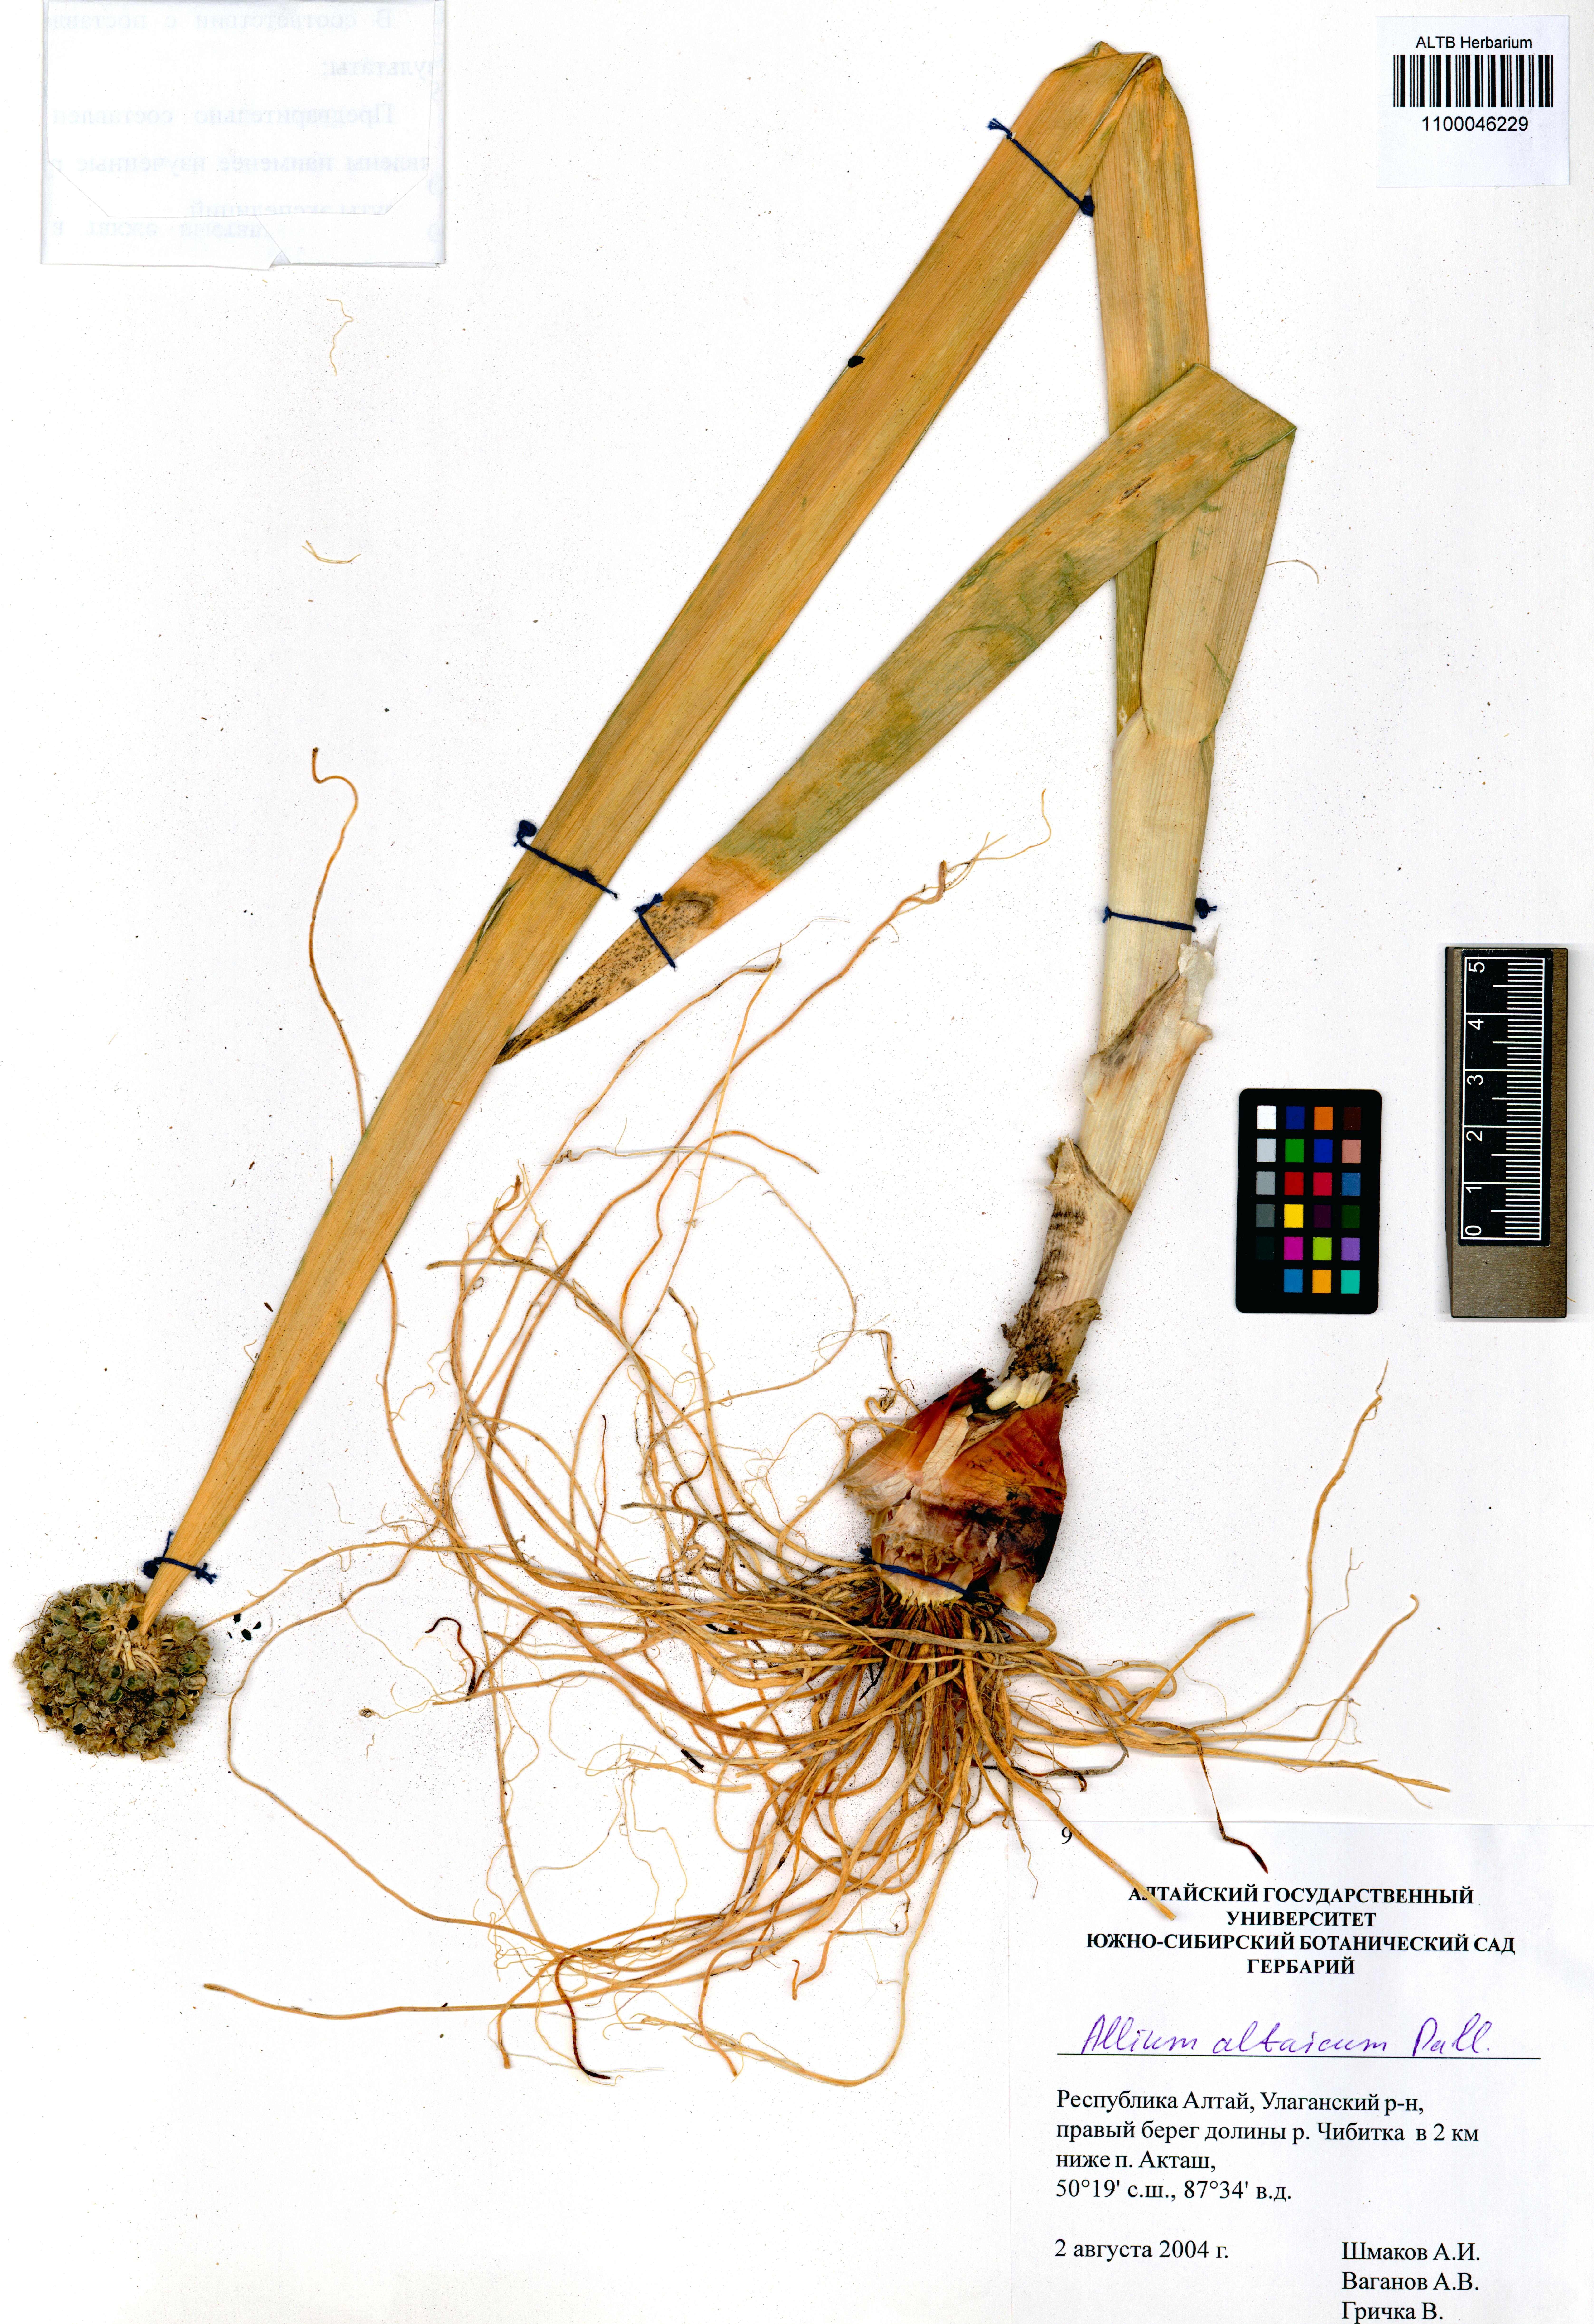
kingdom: Plantae
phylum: Tracheophyta
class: Liliopsida
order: Asparagales
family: Amaryllidaceae
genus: Allium
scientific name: Allium altaicum
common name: Altai onion
